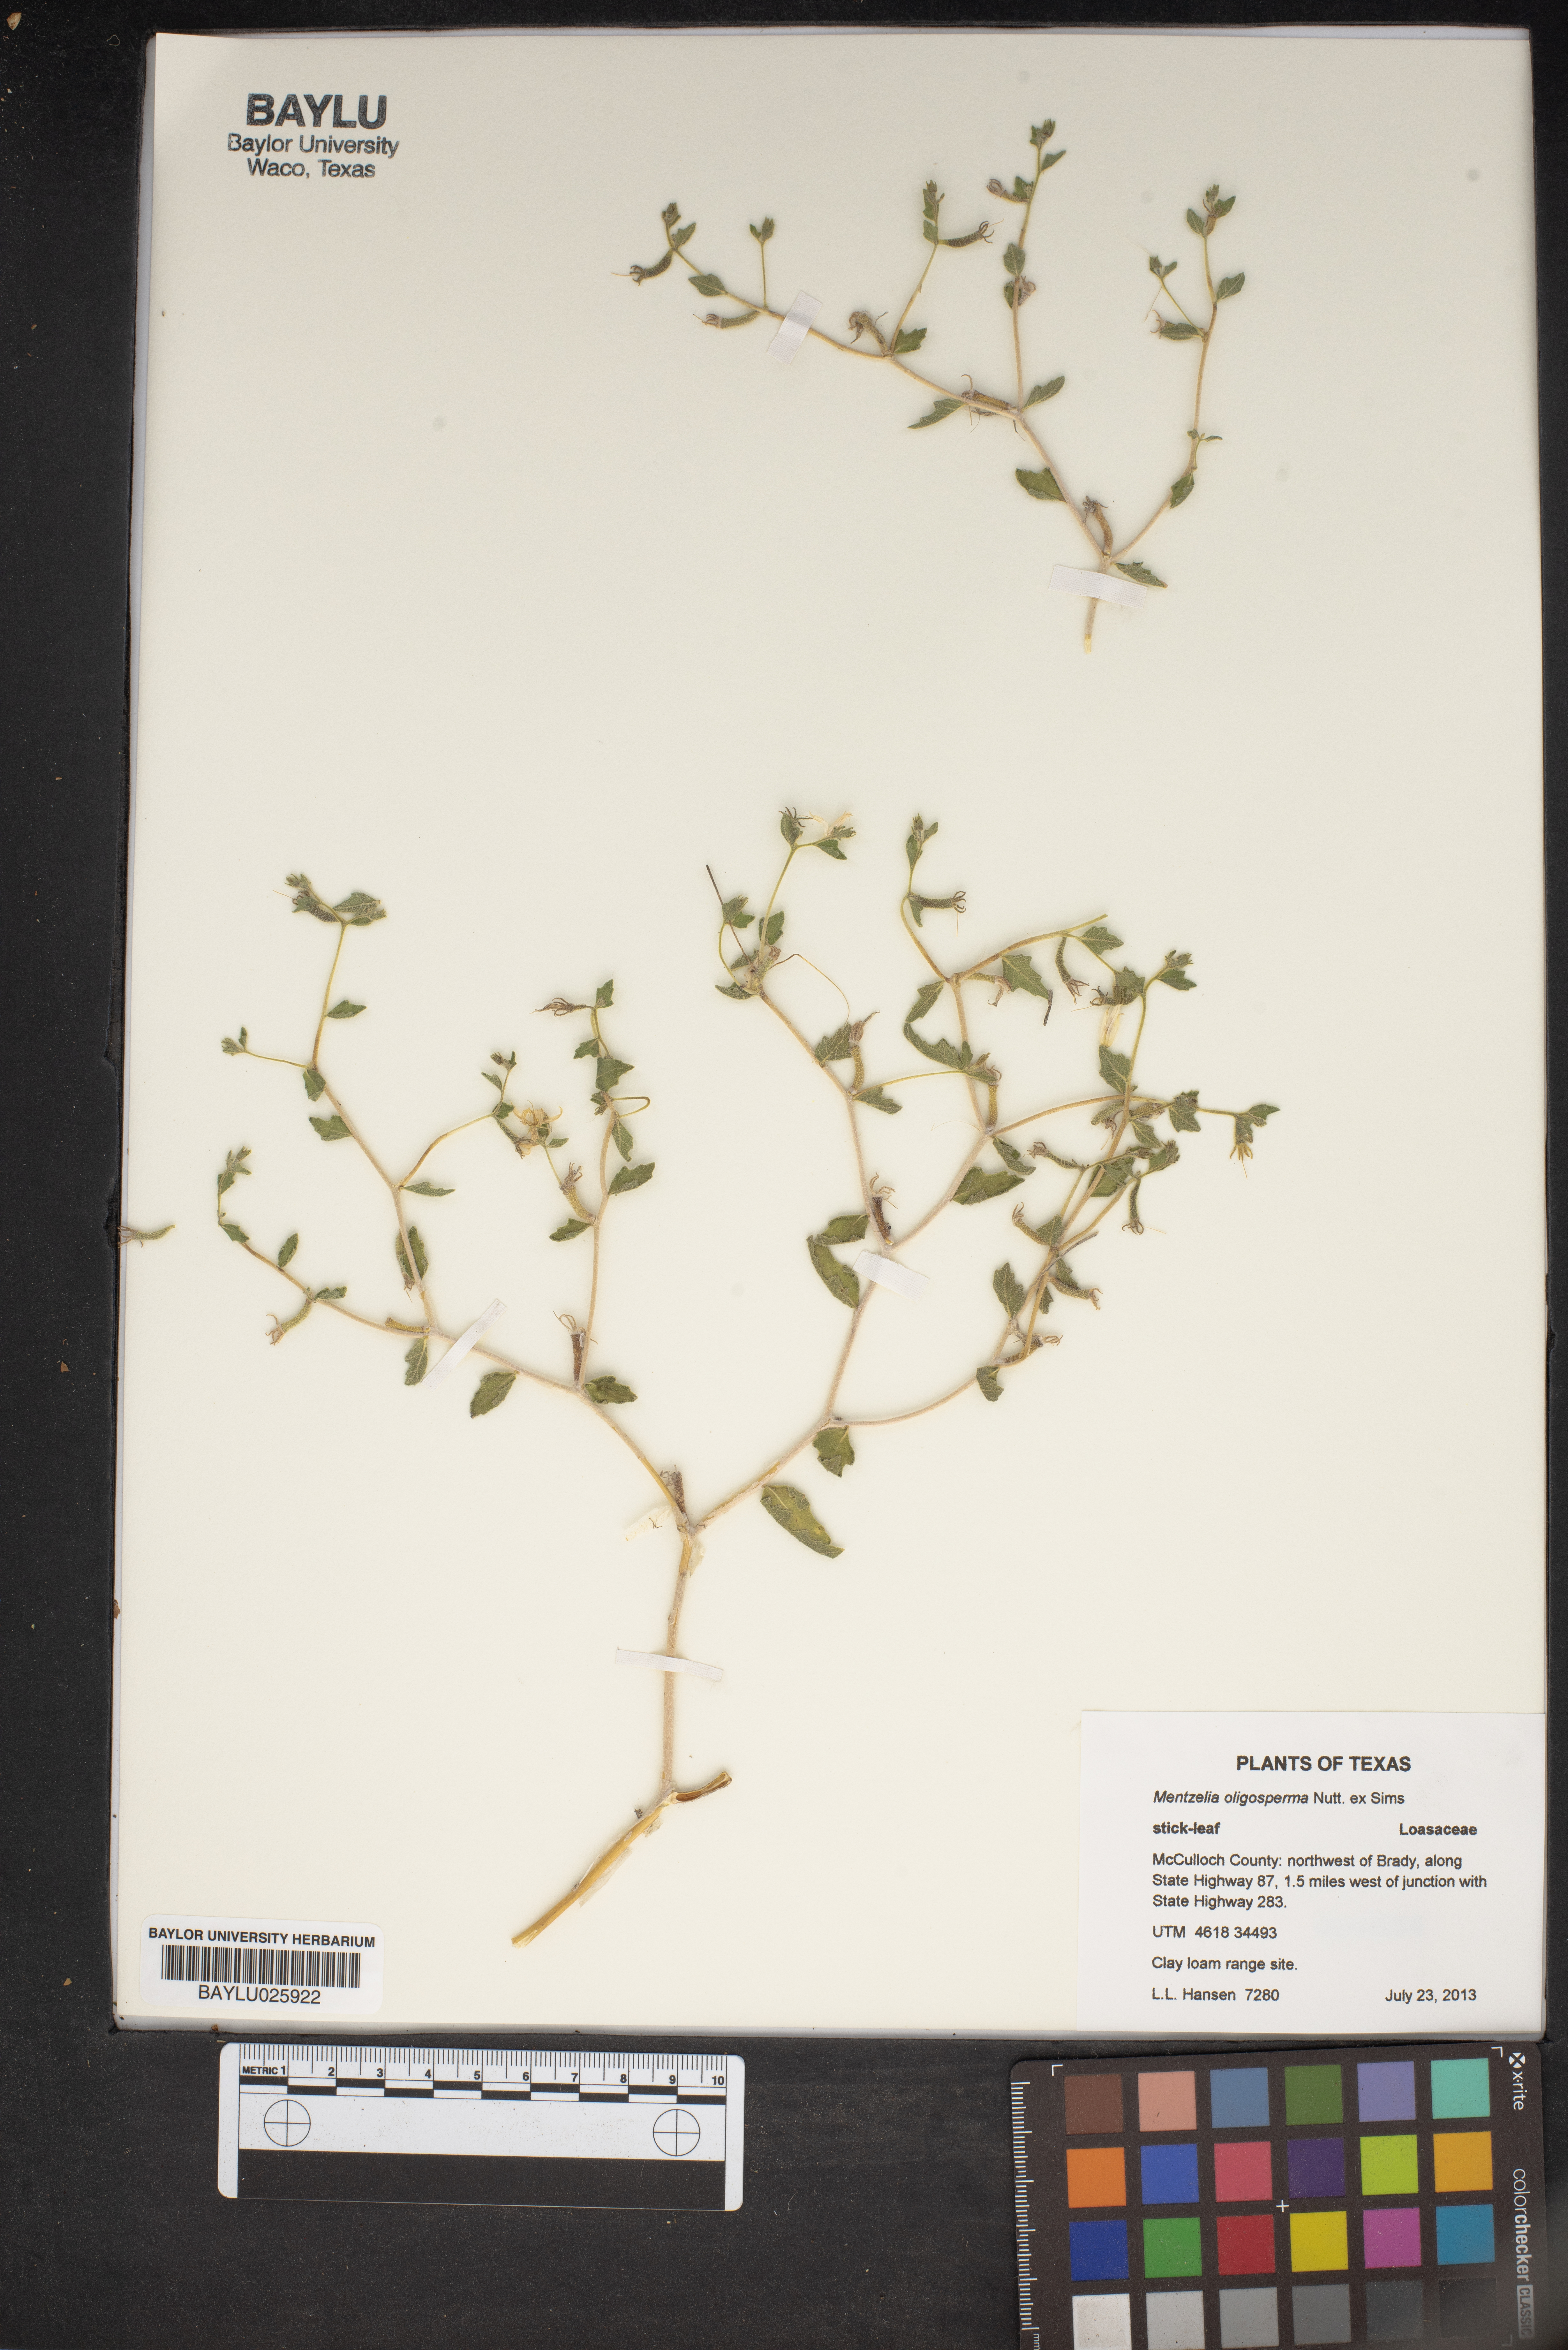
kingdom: Plantae
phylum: Tracheophyta
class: Magnoliopsida
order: Cornales
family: Loasaceae
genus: Mentzelia
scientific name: Mentzelia oligosperma
